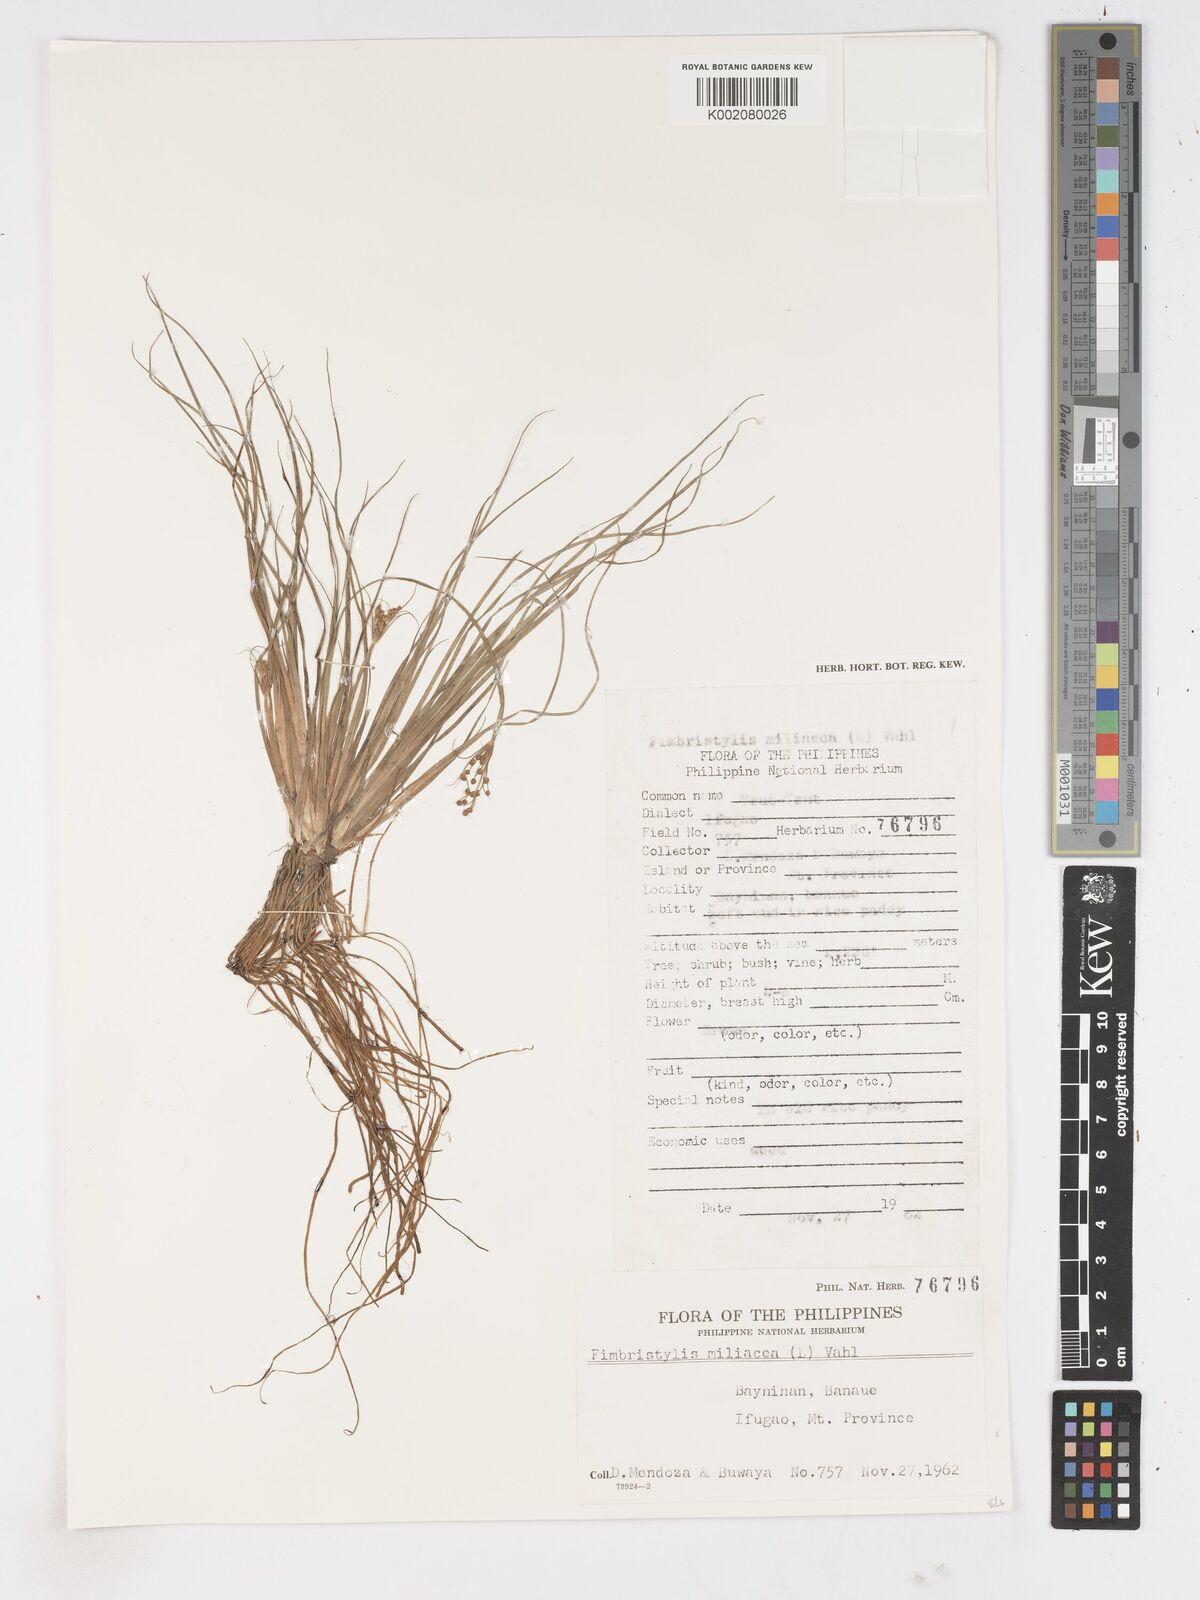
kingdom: Plantae
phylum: Tracheophyta
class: Liliopsida
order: Poales
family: Cyperaceae
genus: Fimbristylis
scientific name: Fimbristylis littoralis
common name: Fimbry
